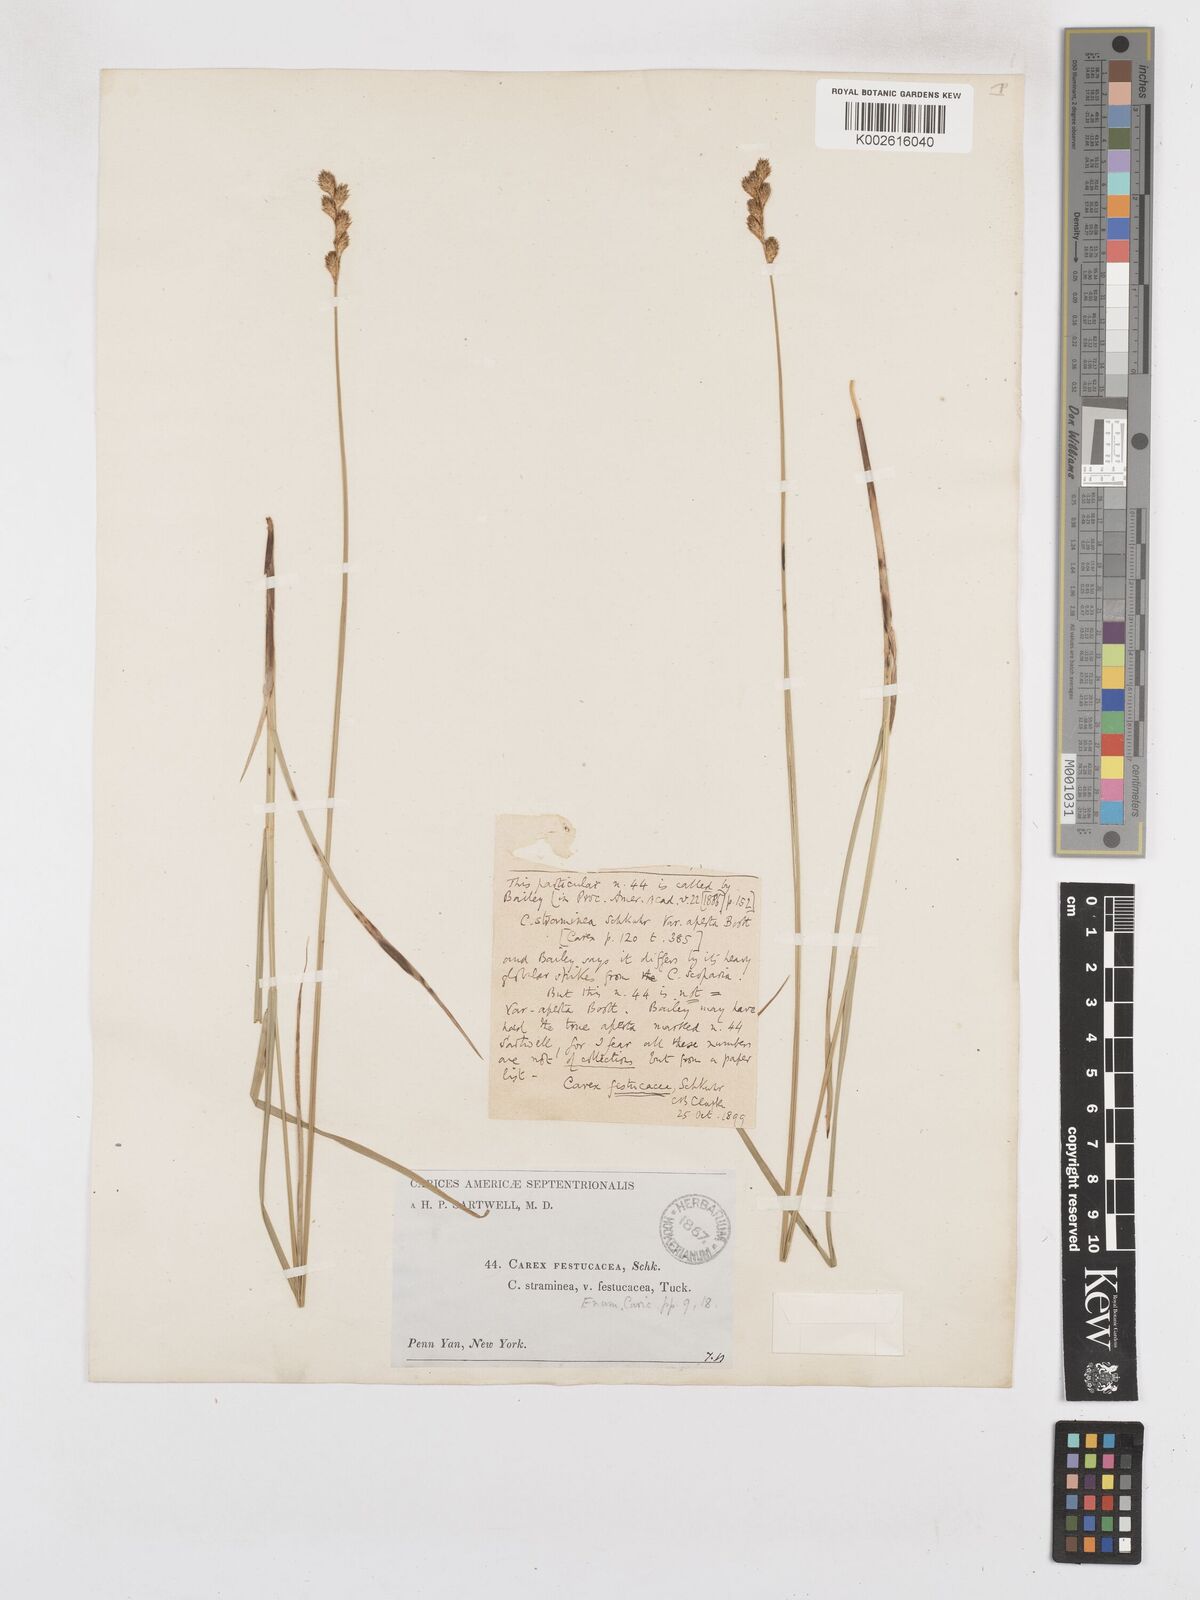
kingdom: Plantae
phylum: Tracheophyta
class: Liliopsida
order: Poales
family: Cyperaceae
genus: Carex
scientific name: Carex festucacea
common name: Fescue oval sedge
